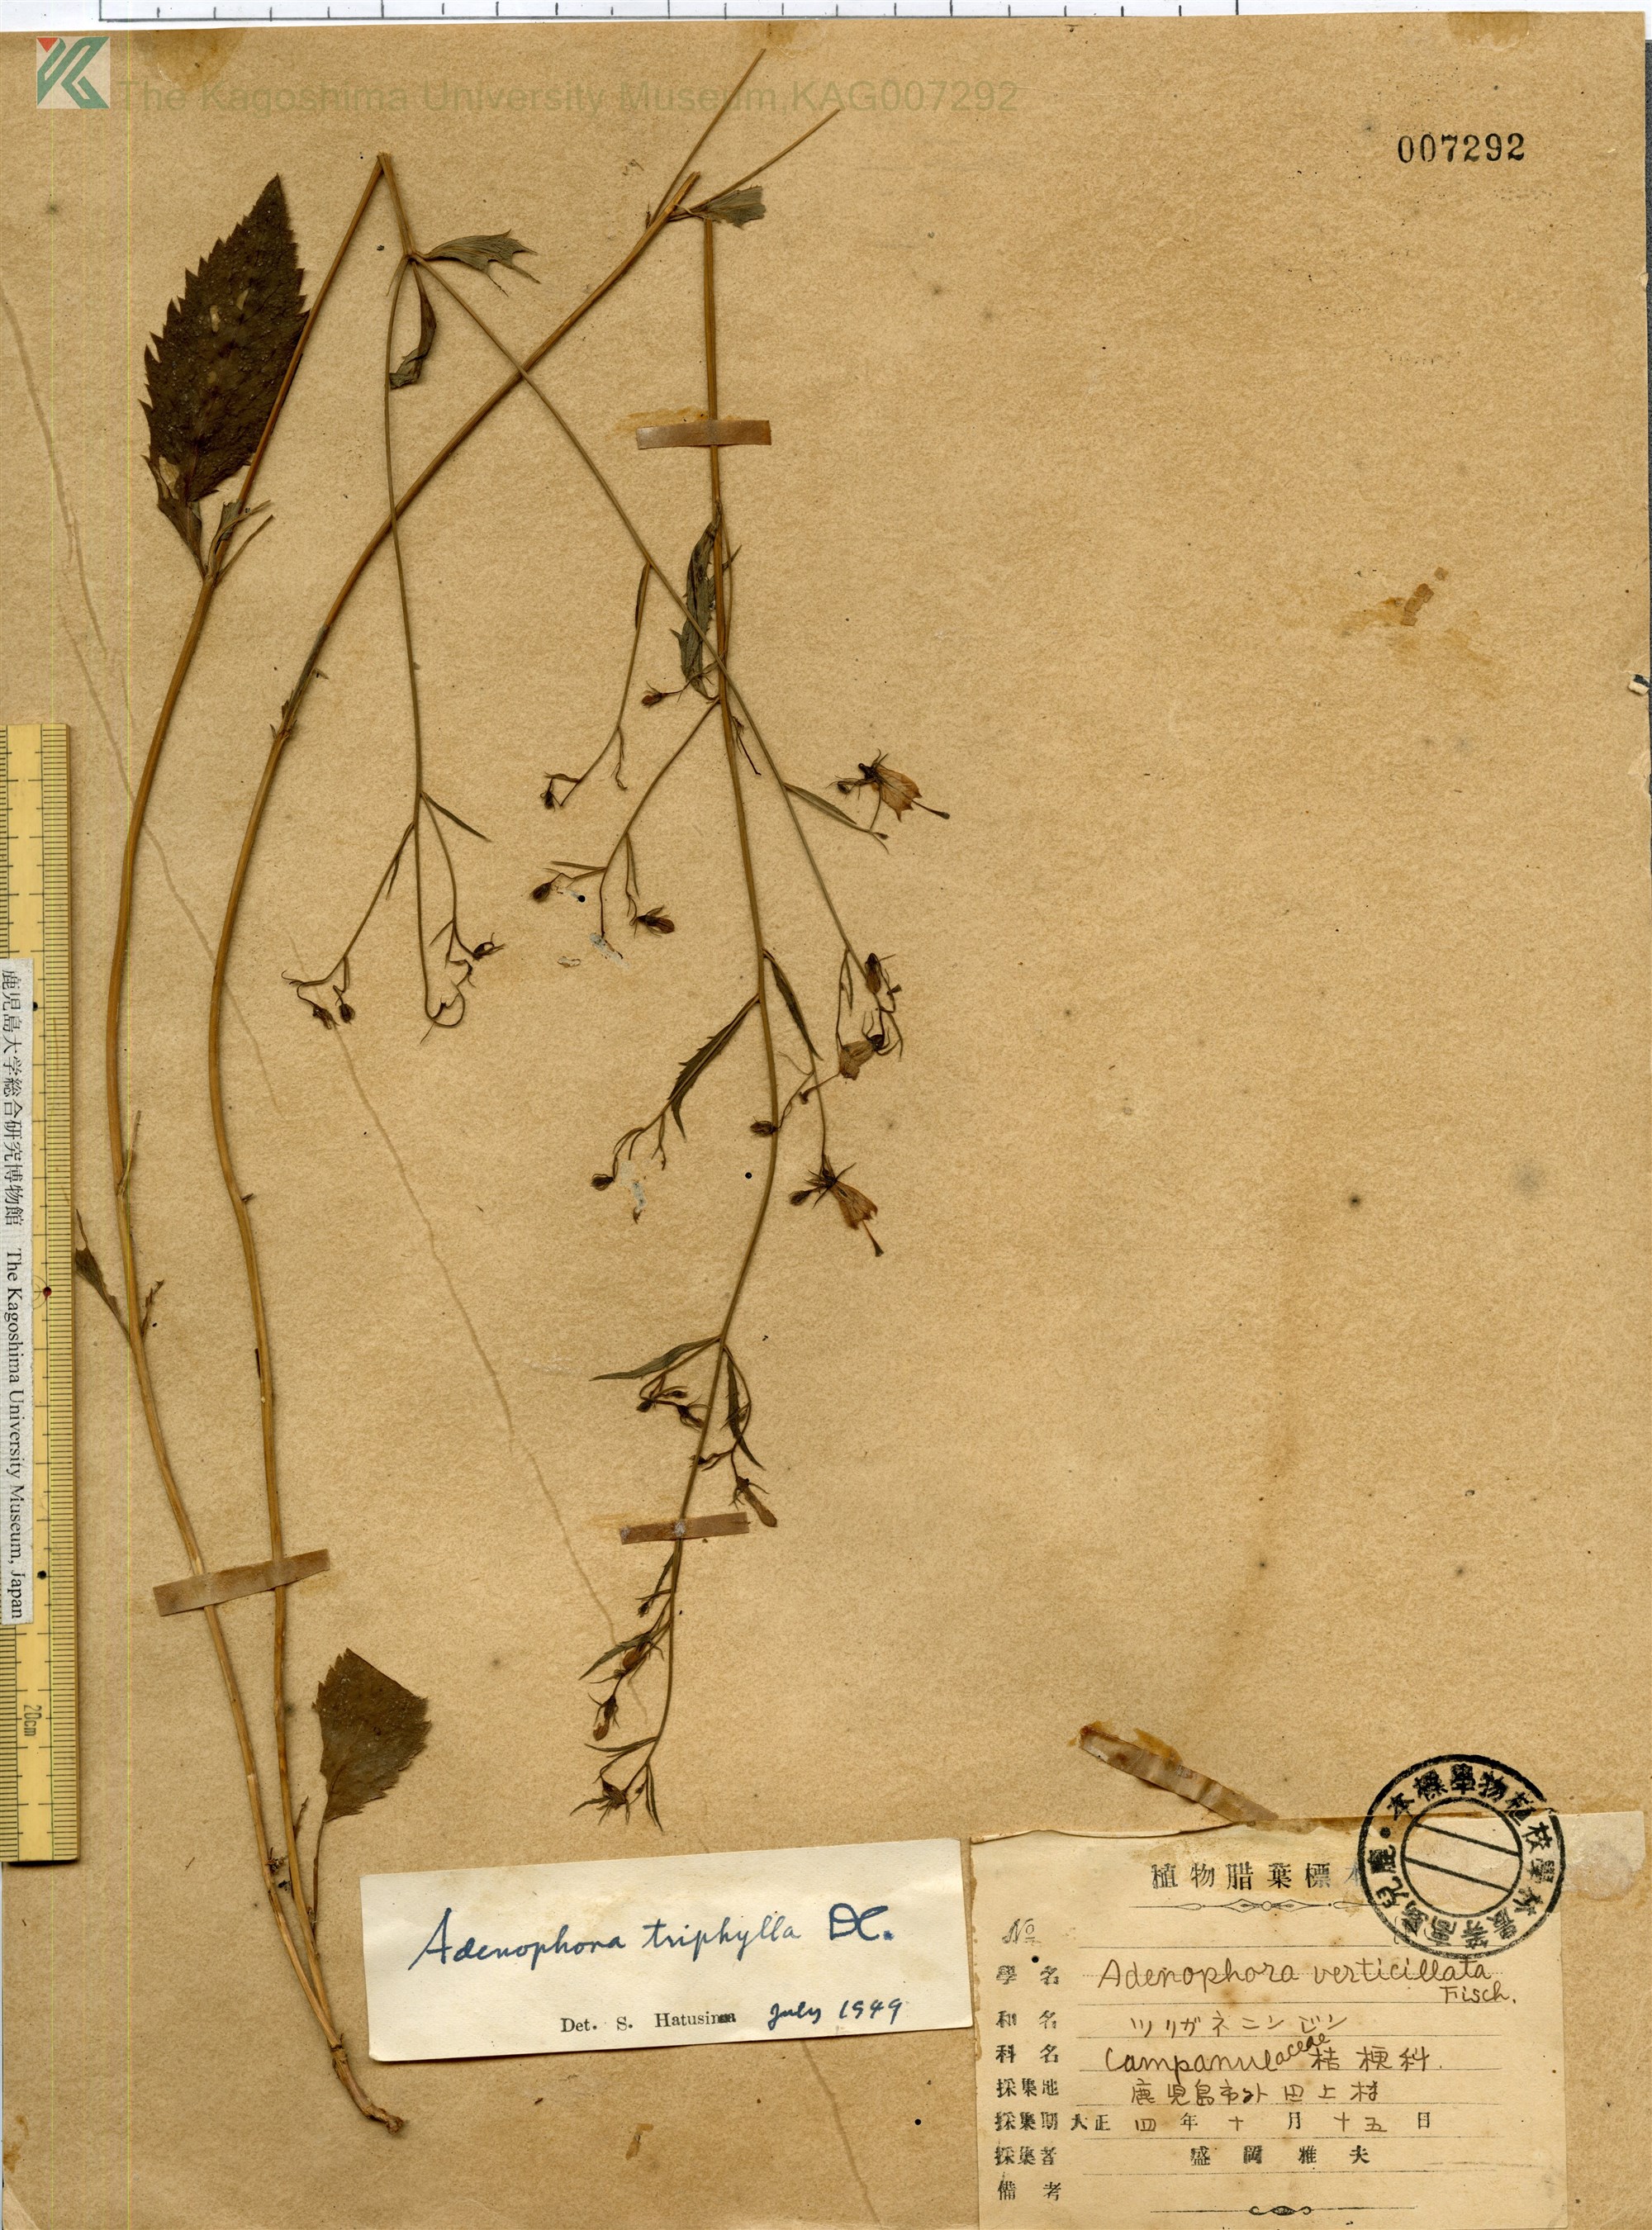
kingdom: Plantae
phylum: Tracheophyta
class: Magnoliopsida
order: Asterales
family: Campanulaceae
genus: Adenophora
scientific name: Adenophora triphylla
